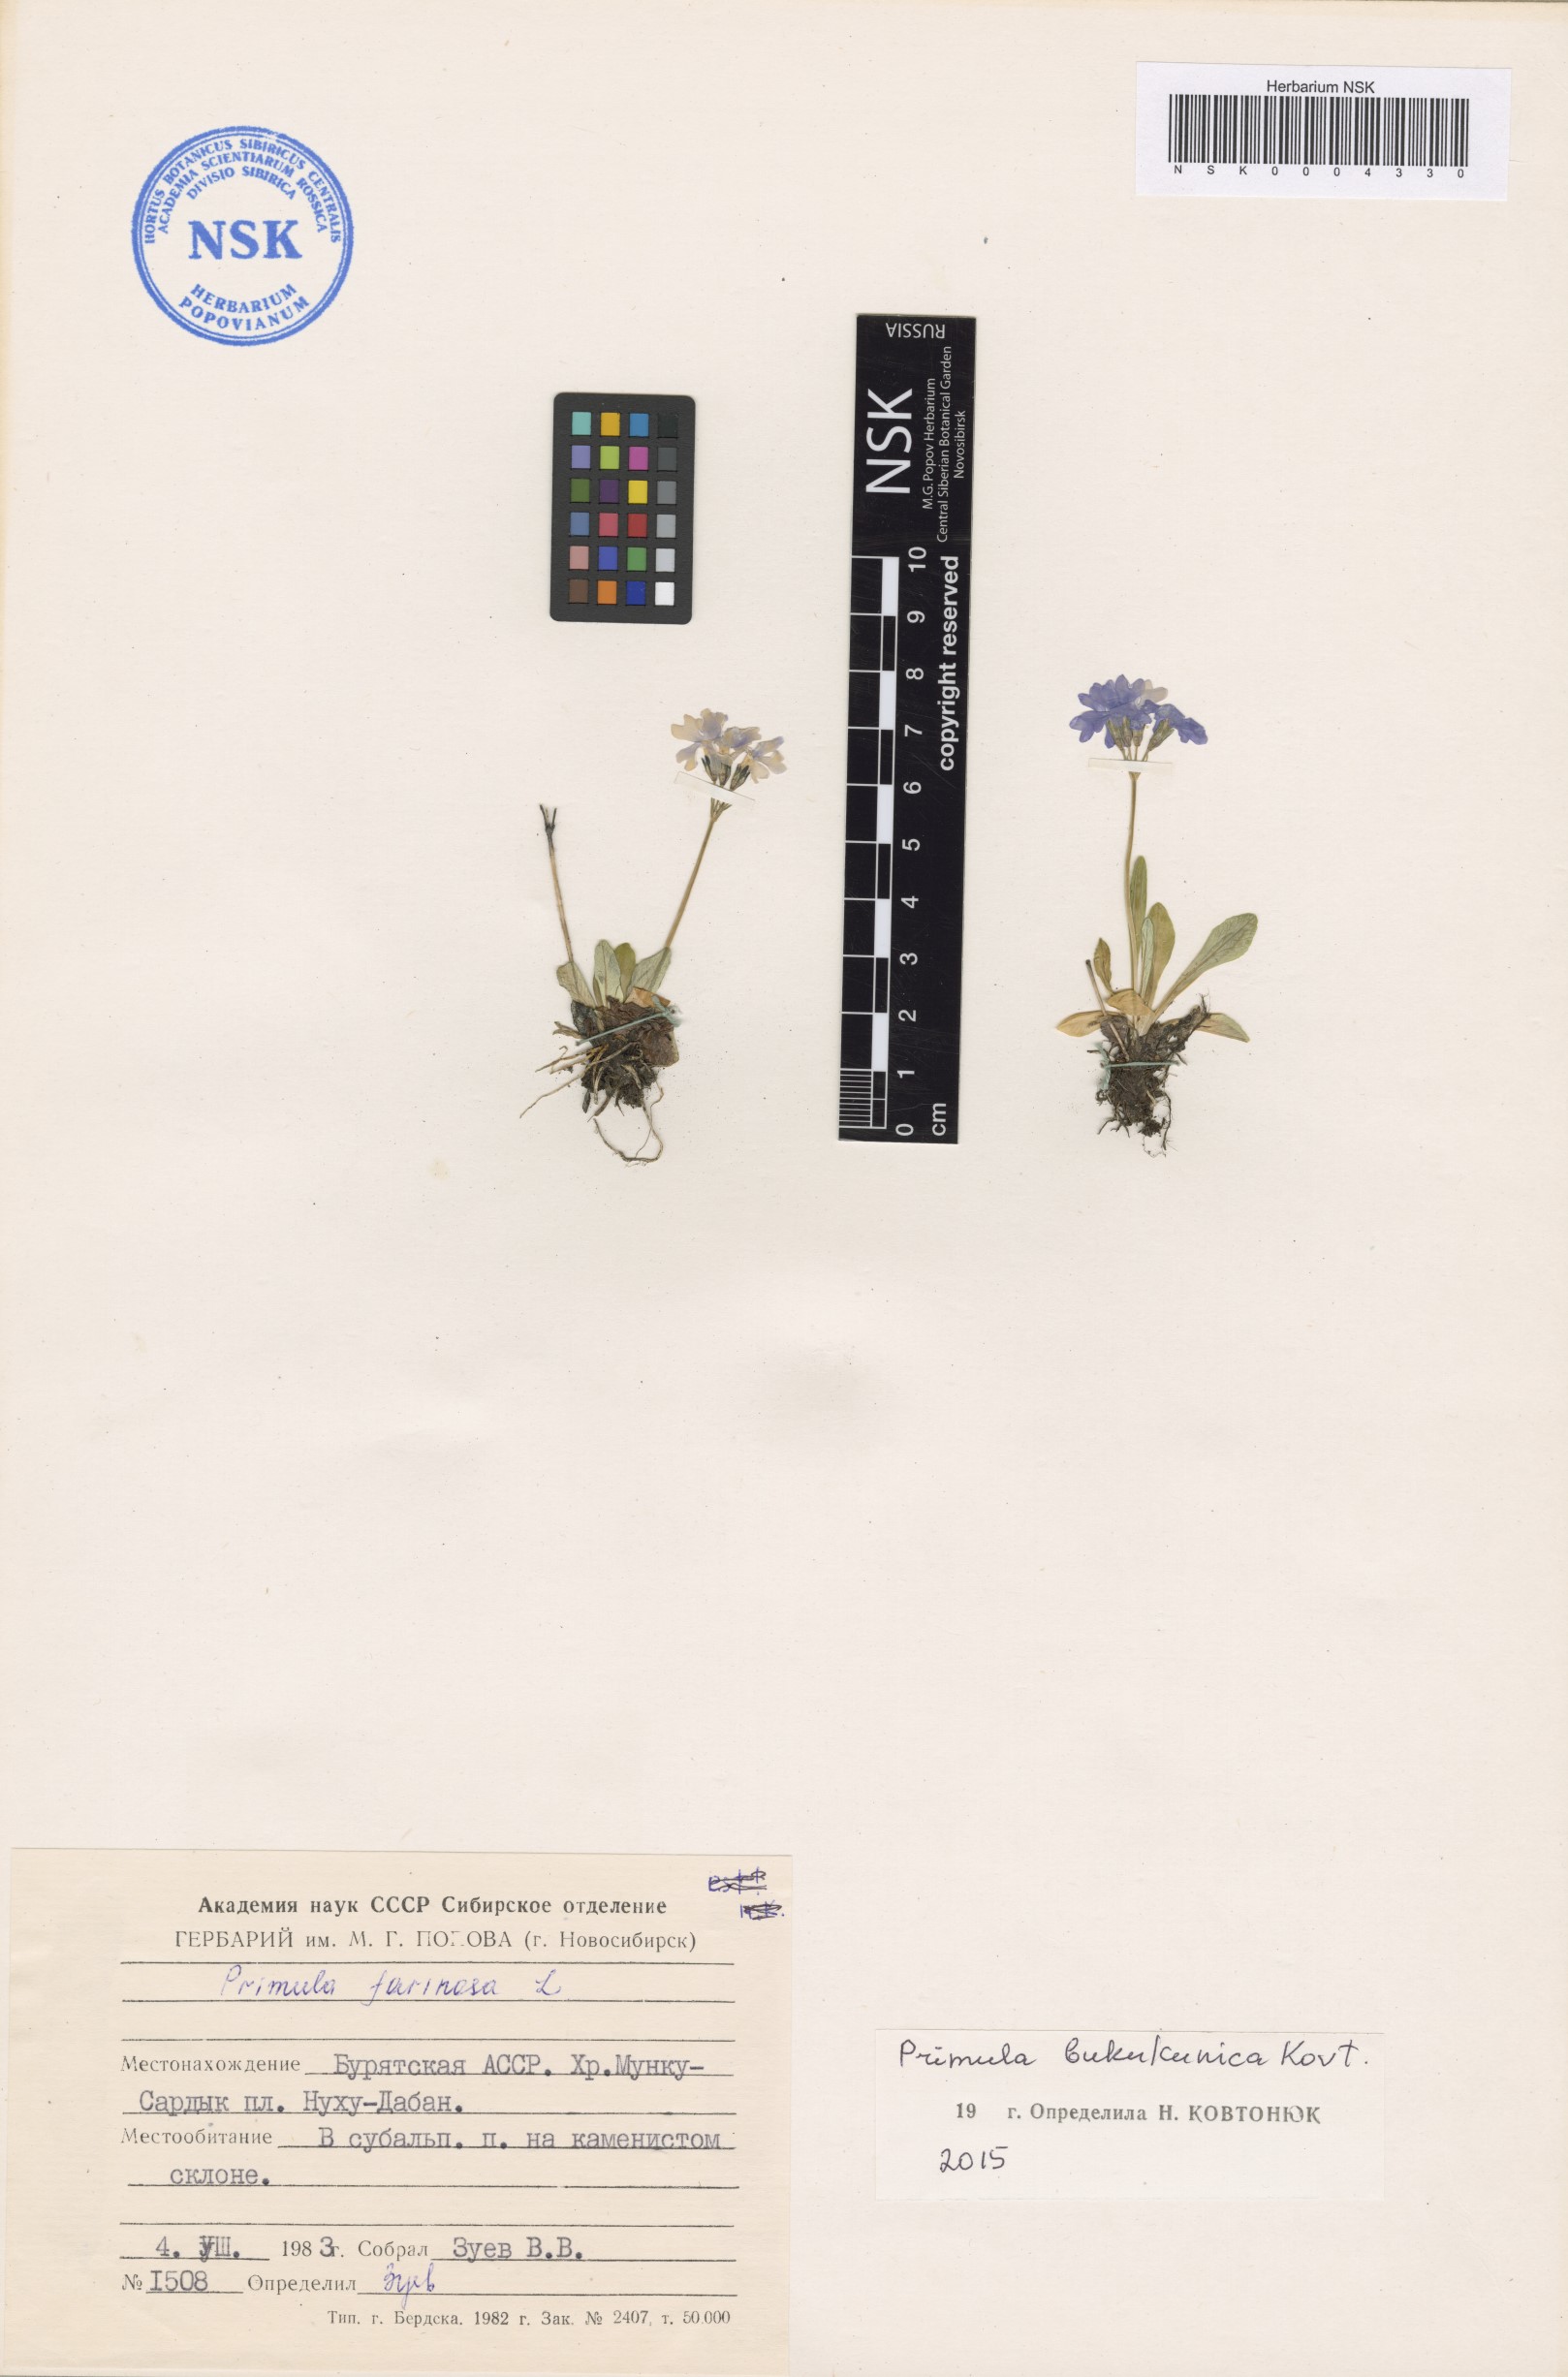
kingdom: Plantae
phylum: Tracheophyta
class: Magnoliopsida
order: Ericales
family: Primulaceae
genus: Primula
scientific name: Primula bukukunica
